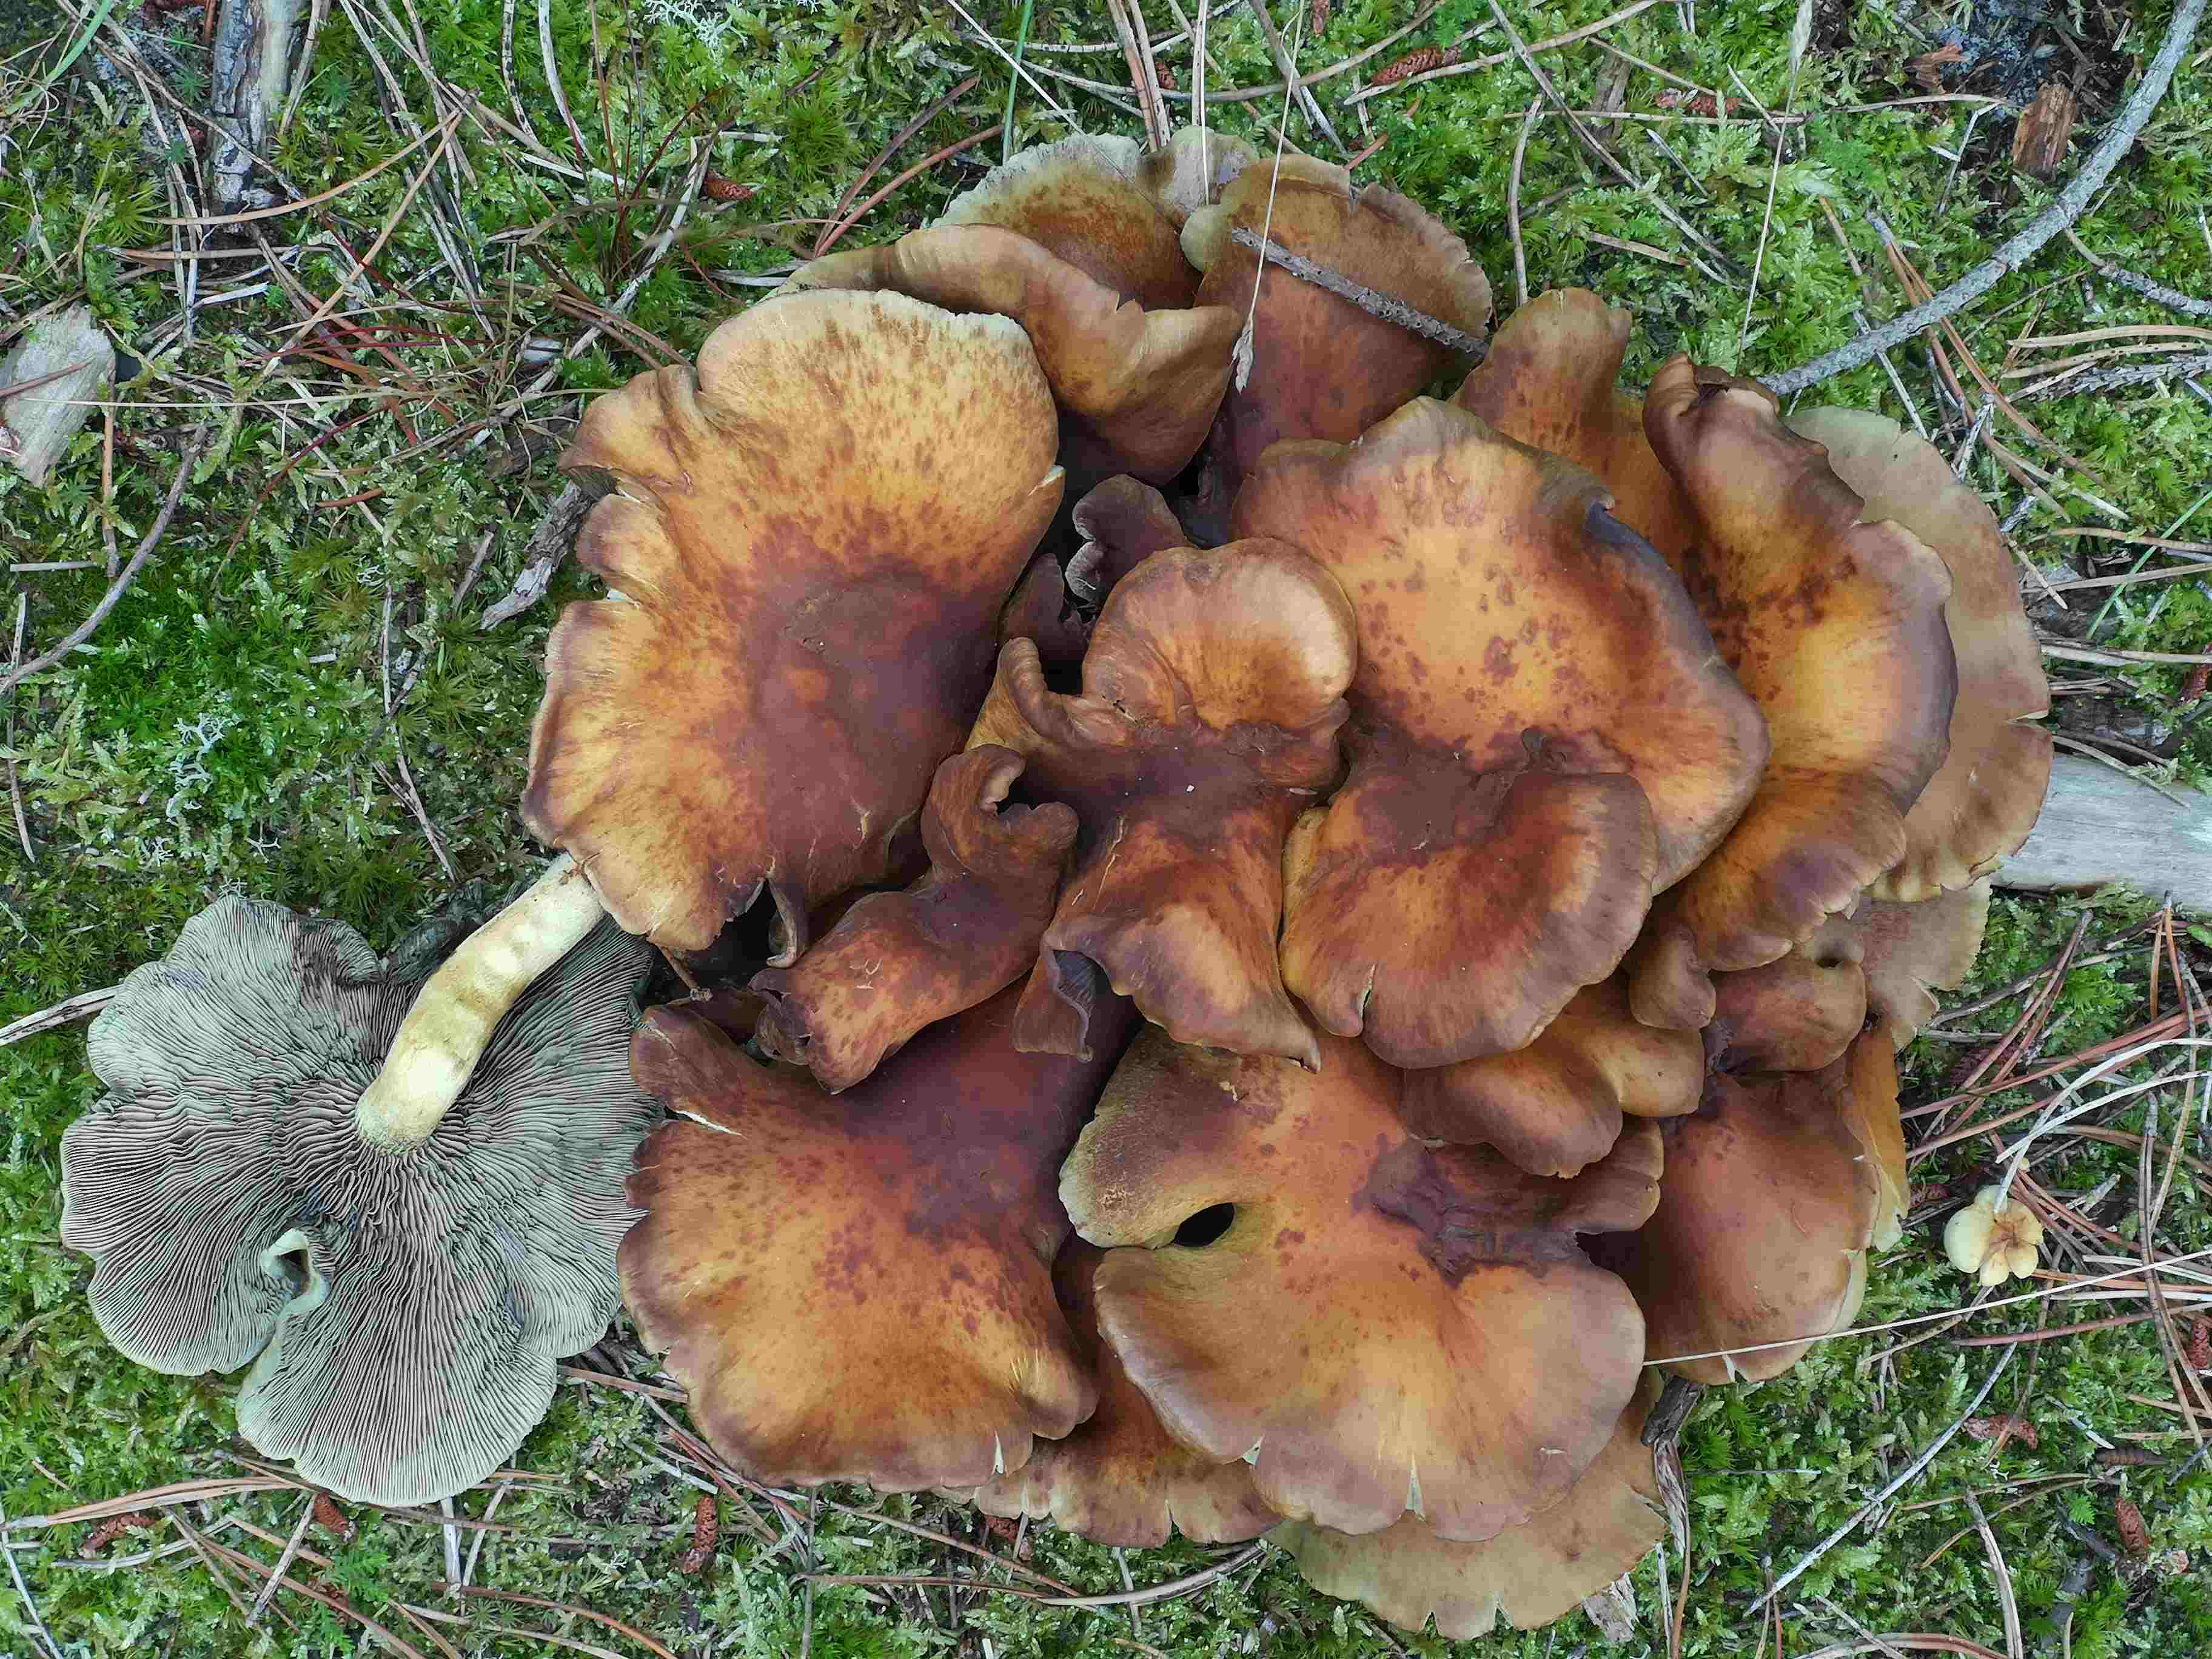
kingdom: Fungi
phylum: Basidiomycota
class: Agaricomycetes
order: Agaricales
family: Strophariaceae
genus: Hypholoma
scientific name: Hypholoma fasciculare
